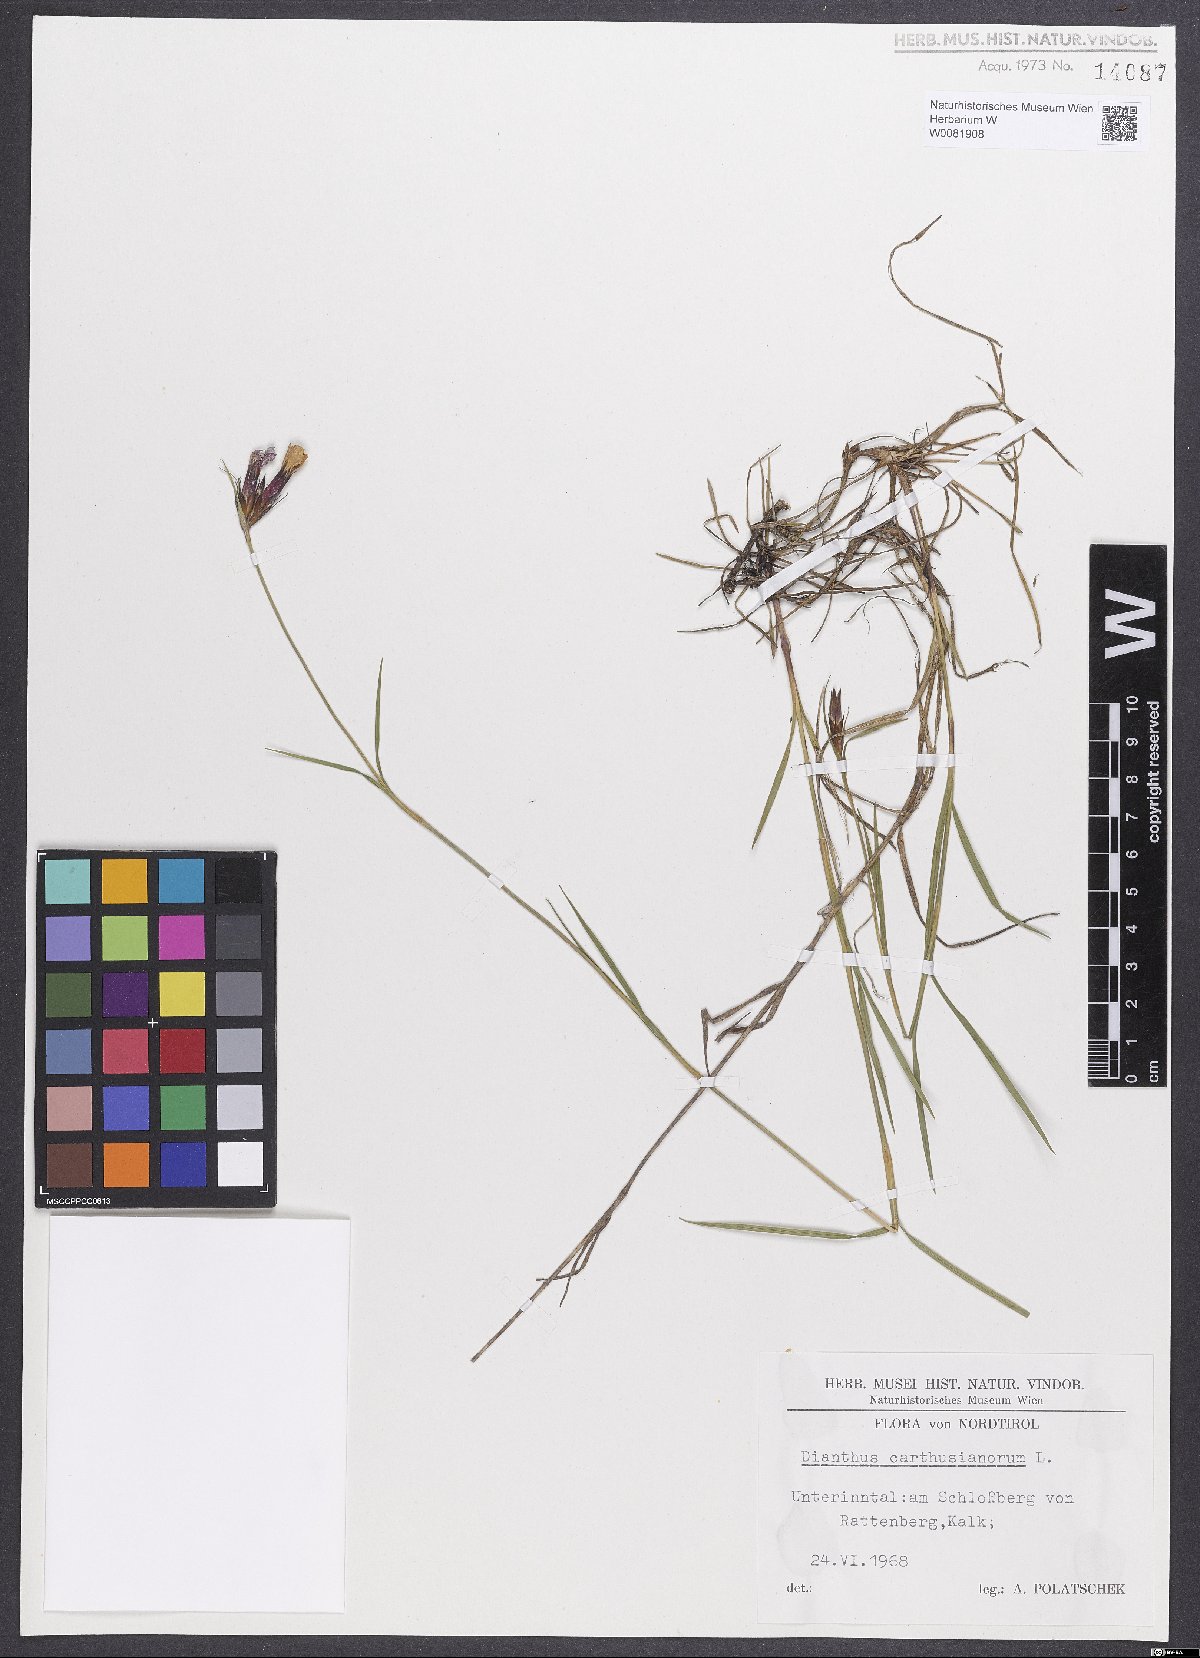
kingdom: Plantae
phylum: Tracheophyta
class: Magnoliopsida
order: Caryophyllales
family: Caryophyllaceae
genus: Dianthus
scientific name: Dianthus carthusianorum
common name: Carthusian pink
